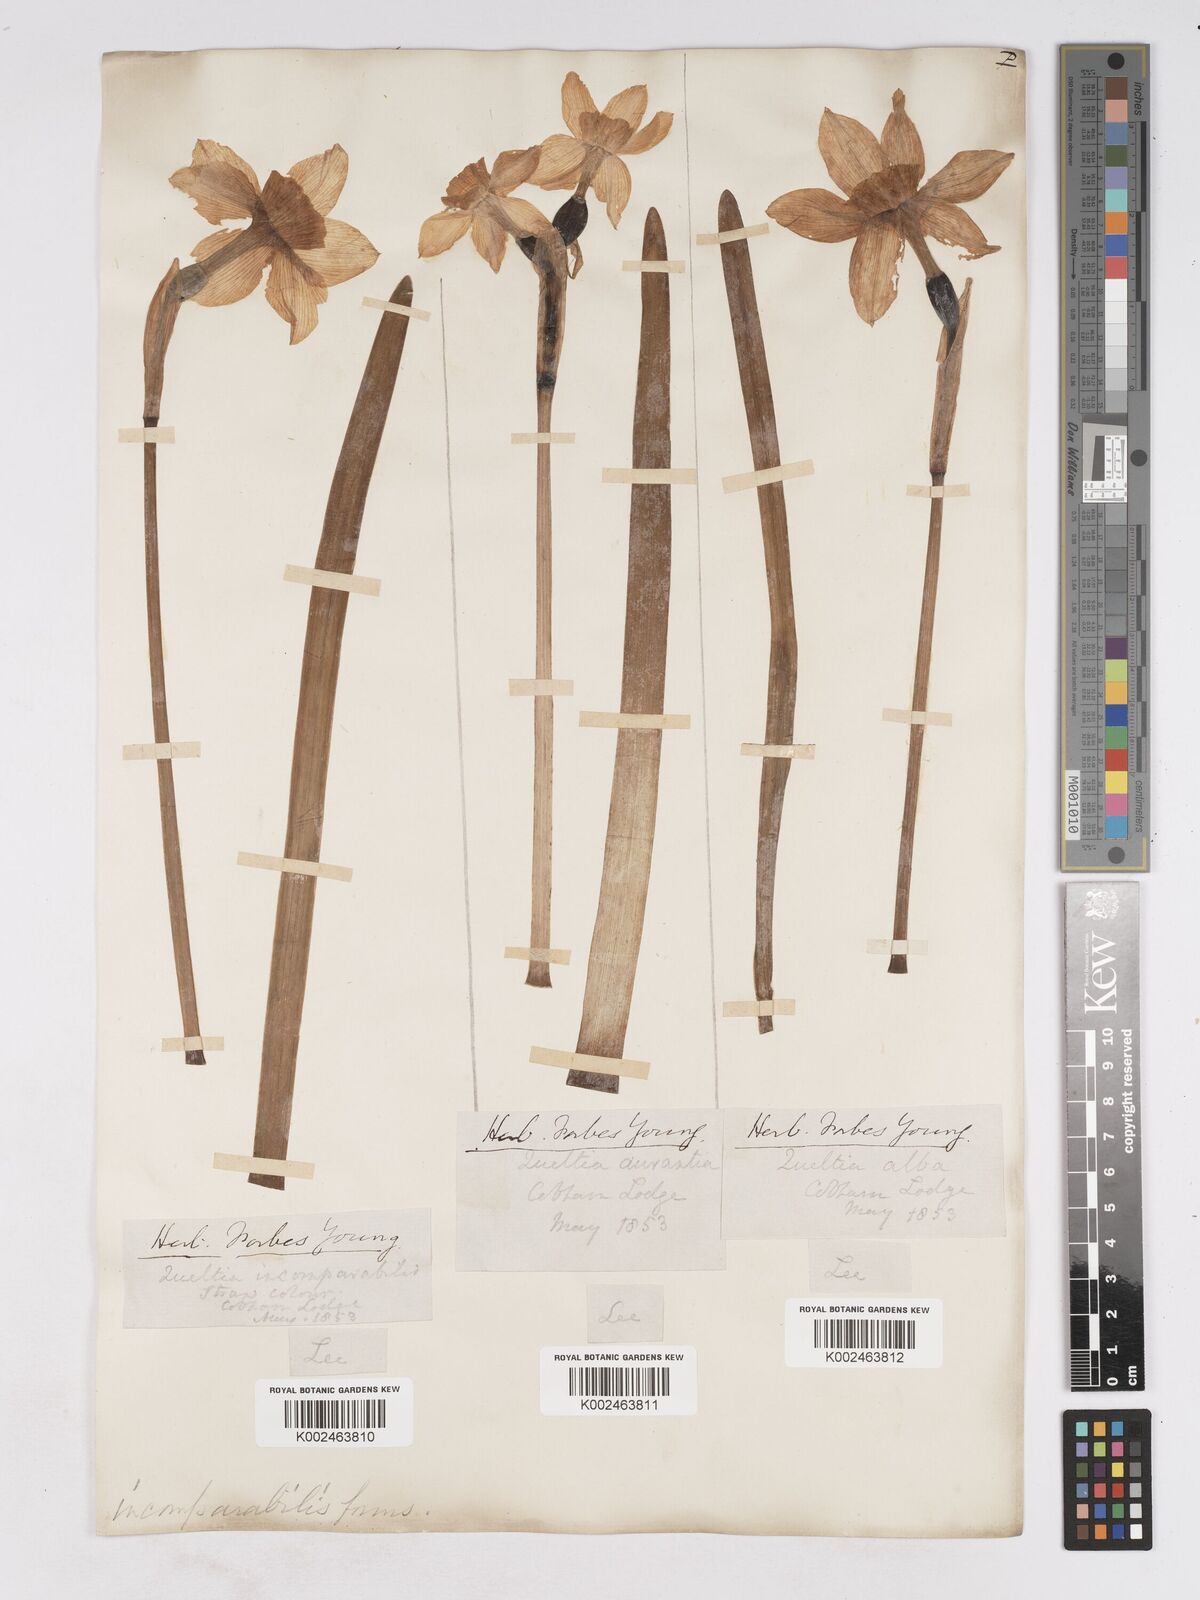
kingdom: Plantae
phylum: Tracheophyta
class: Liliopsida
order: Asparagales
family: Amaryllidaceae
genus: Narcissus
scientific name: Narcissus incomparabilis
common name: Nonesuch daffodil
